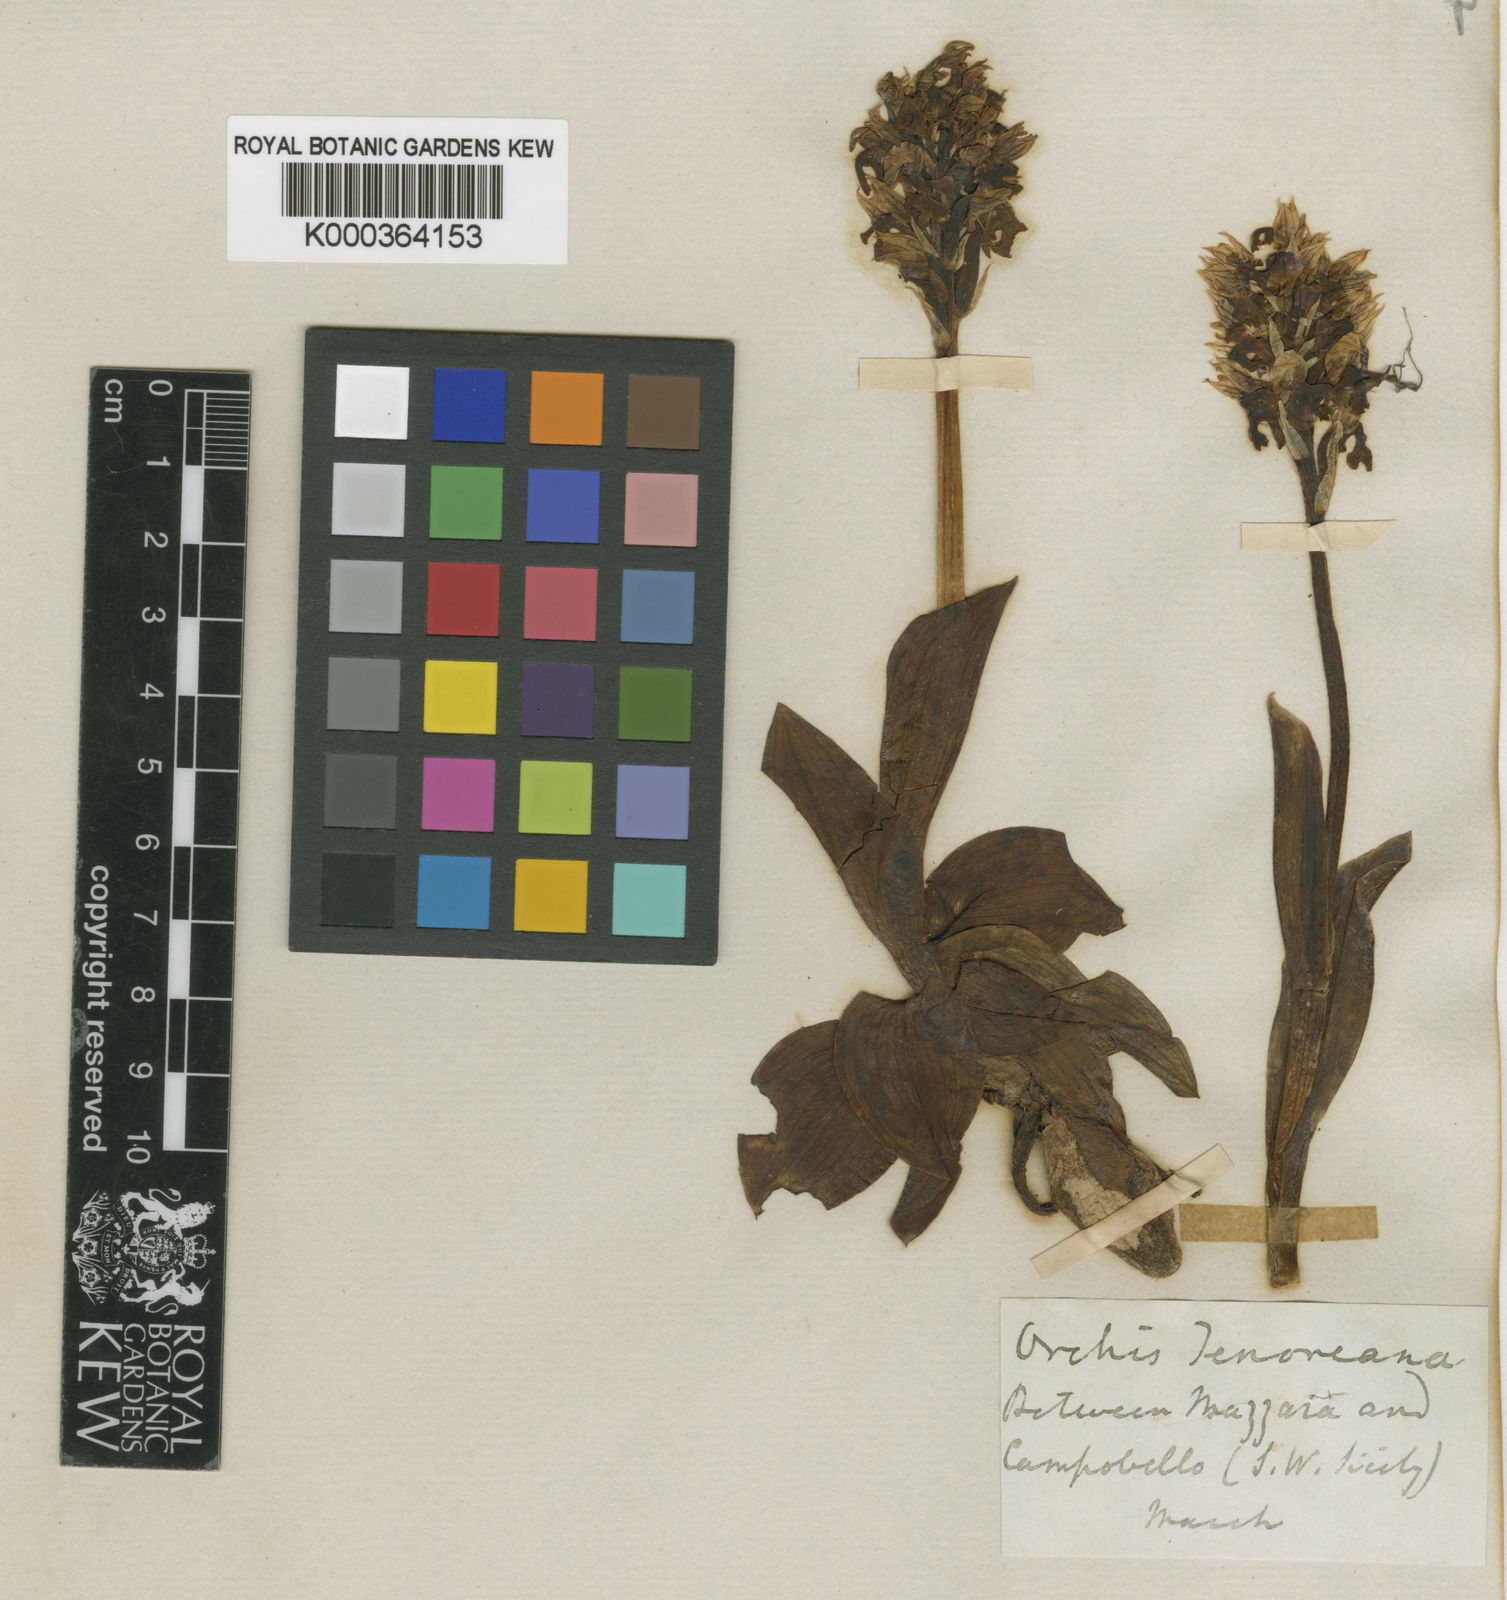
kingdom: Plantae
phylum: Tracheophyta
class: Liliopsida
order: Asparagales
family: Orchidaceae
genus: Neotinea
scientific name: Neotinea lactea
